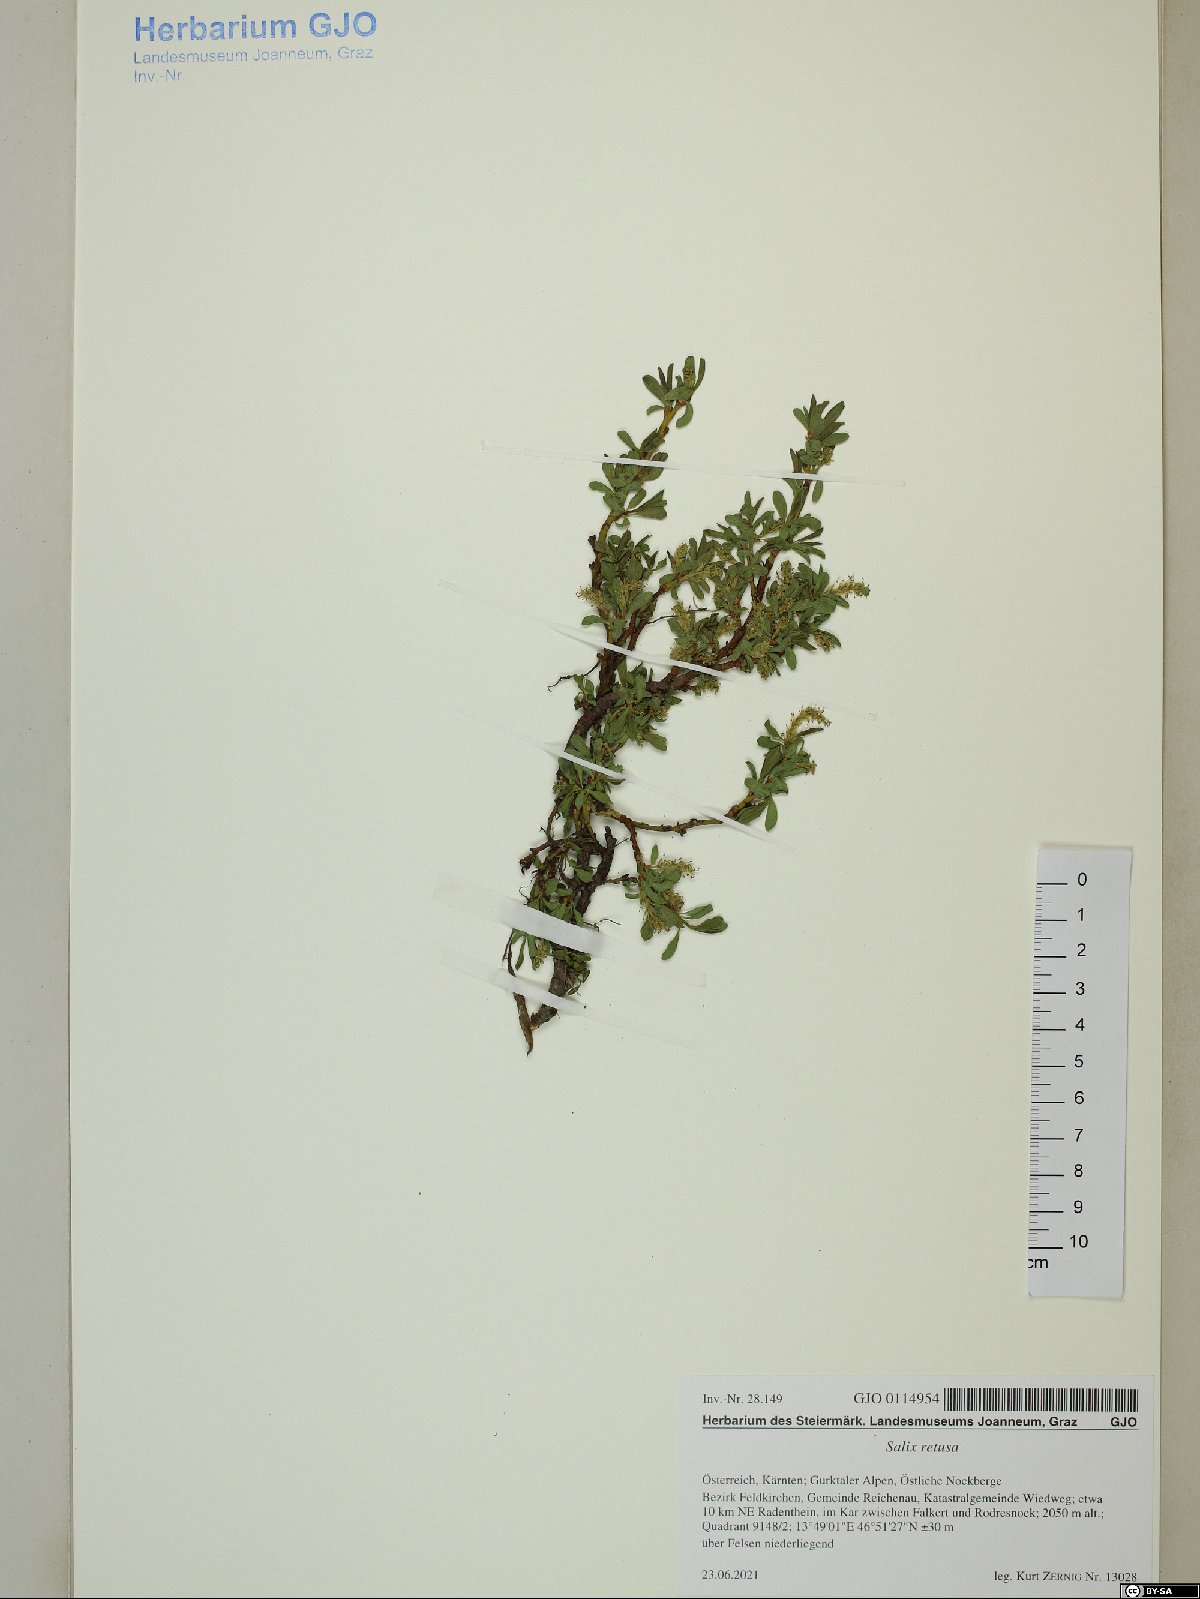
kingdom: Plantae
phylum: Tracheophyta
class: Magnoliopsida
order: Malpighiales
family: Salicaceae
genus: Salix
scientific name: Salix retusa
